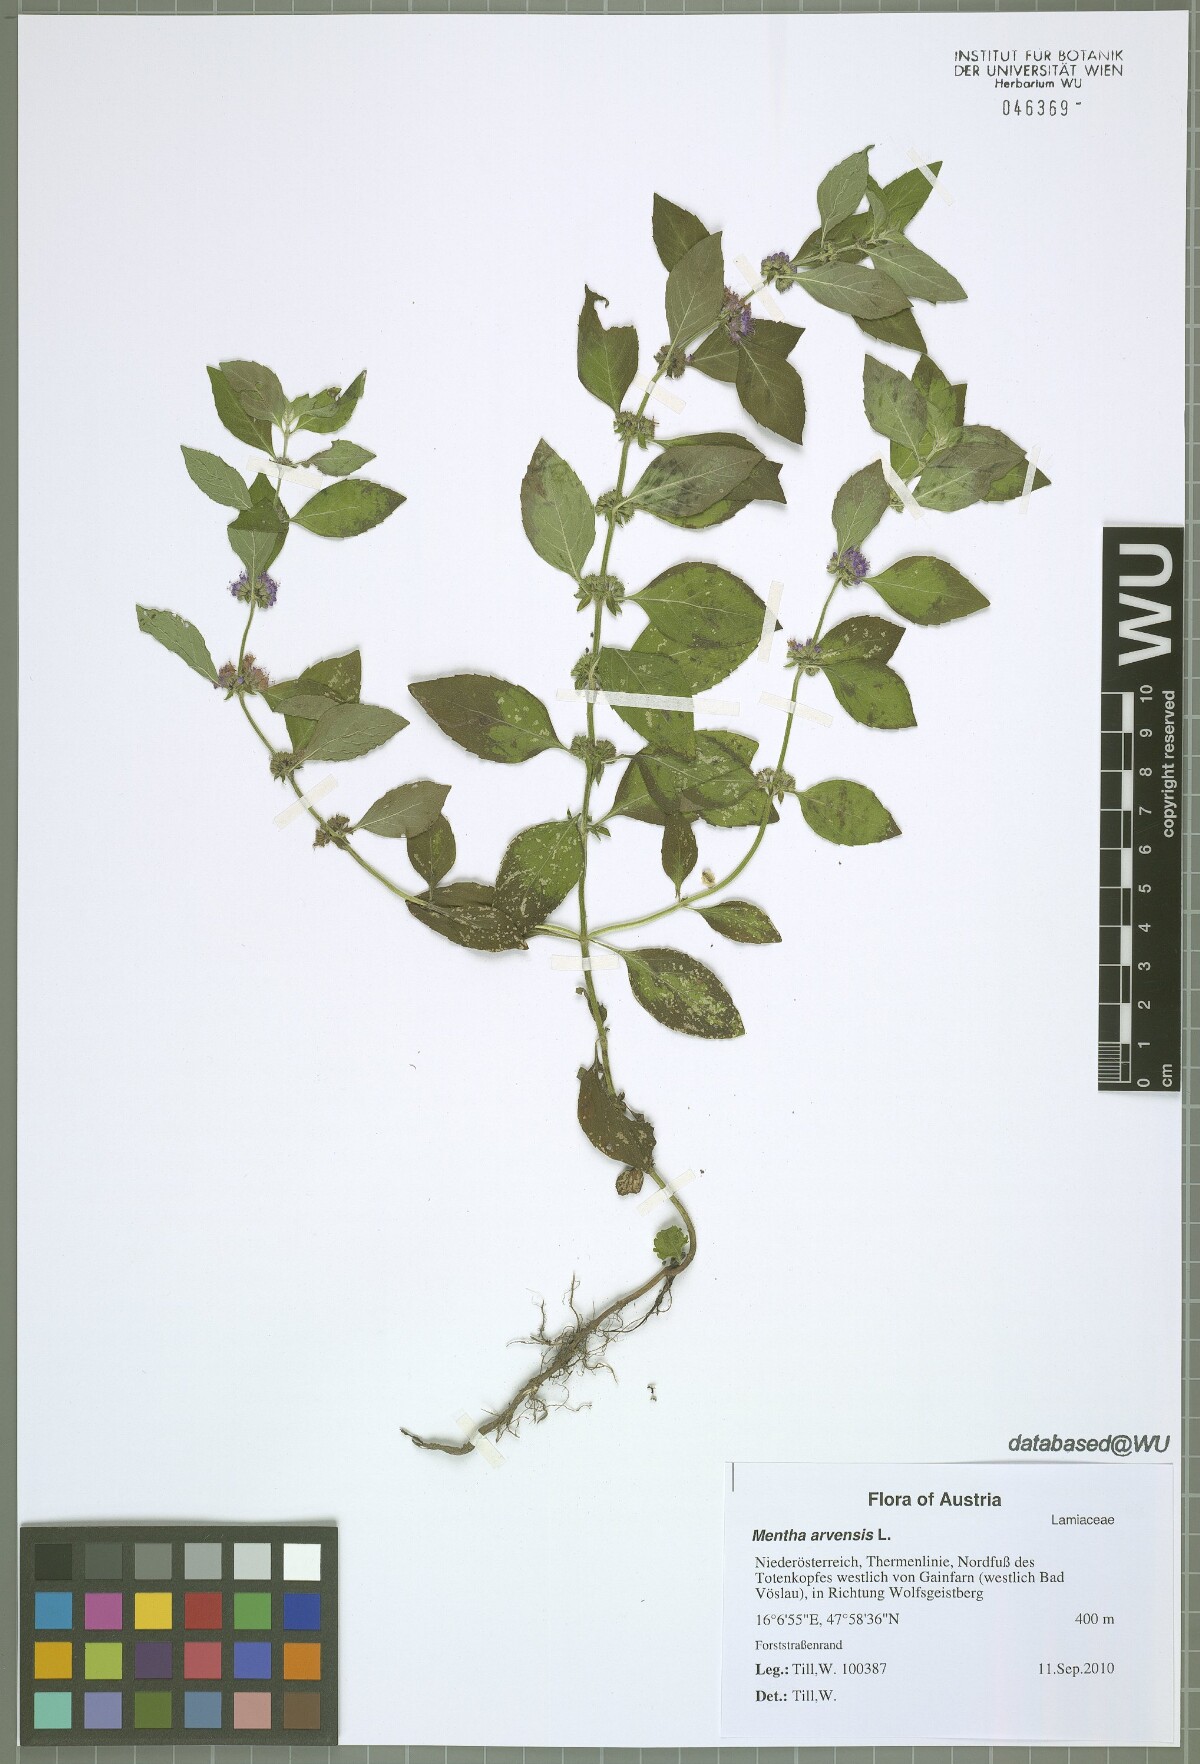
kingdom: Plantae
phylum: Tracheophyta
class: Magnoliopsida
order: Lamiales
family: Lamiaceae
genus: Mentha
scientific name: Mentha arvensis
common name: Corn mint
